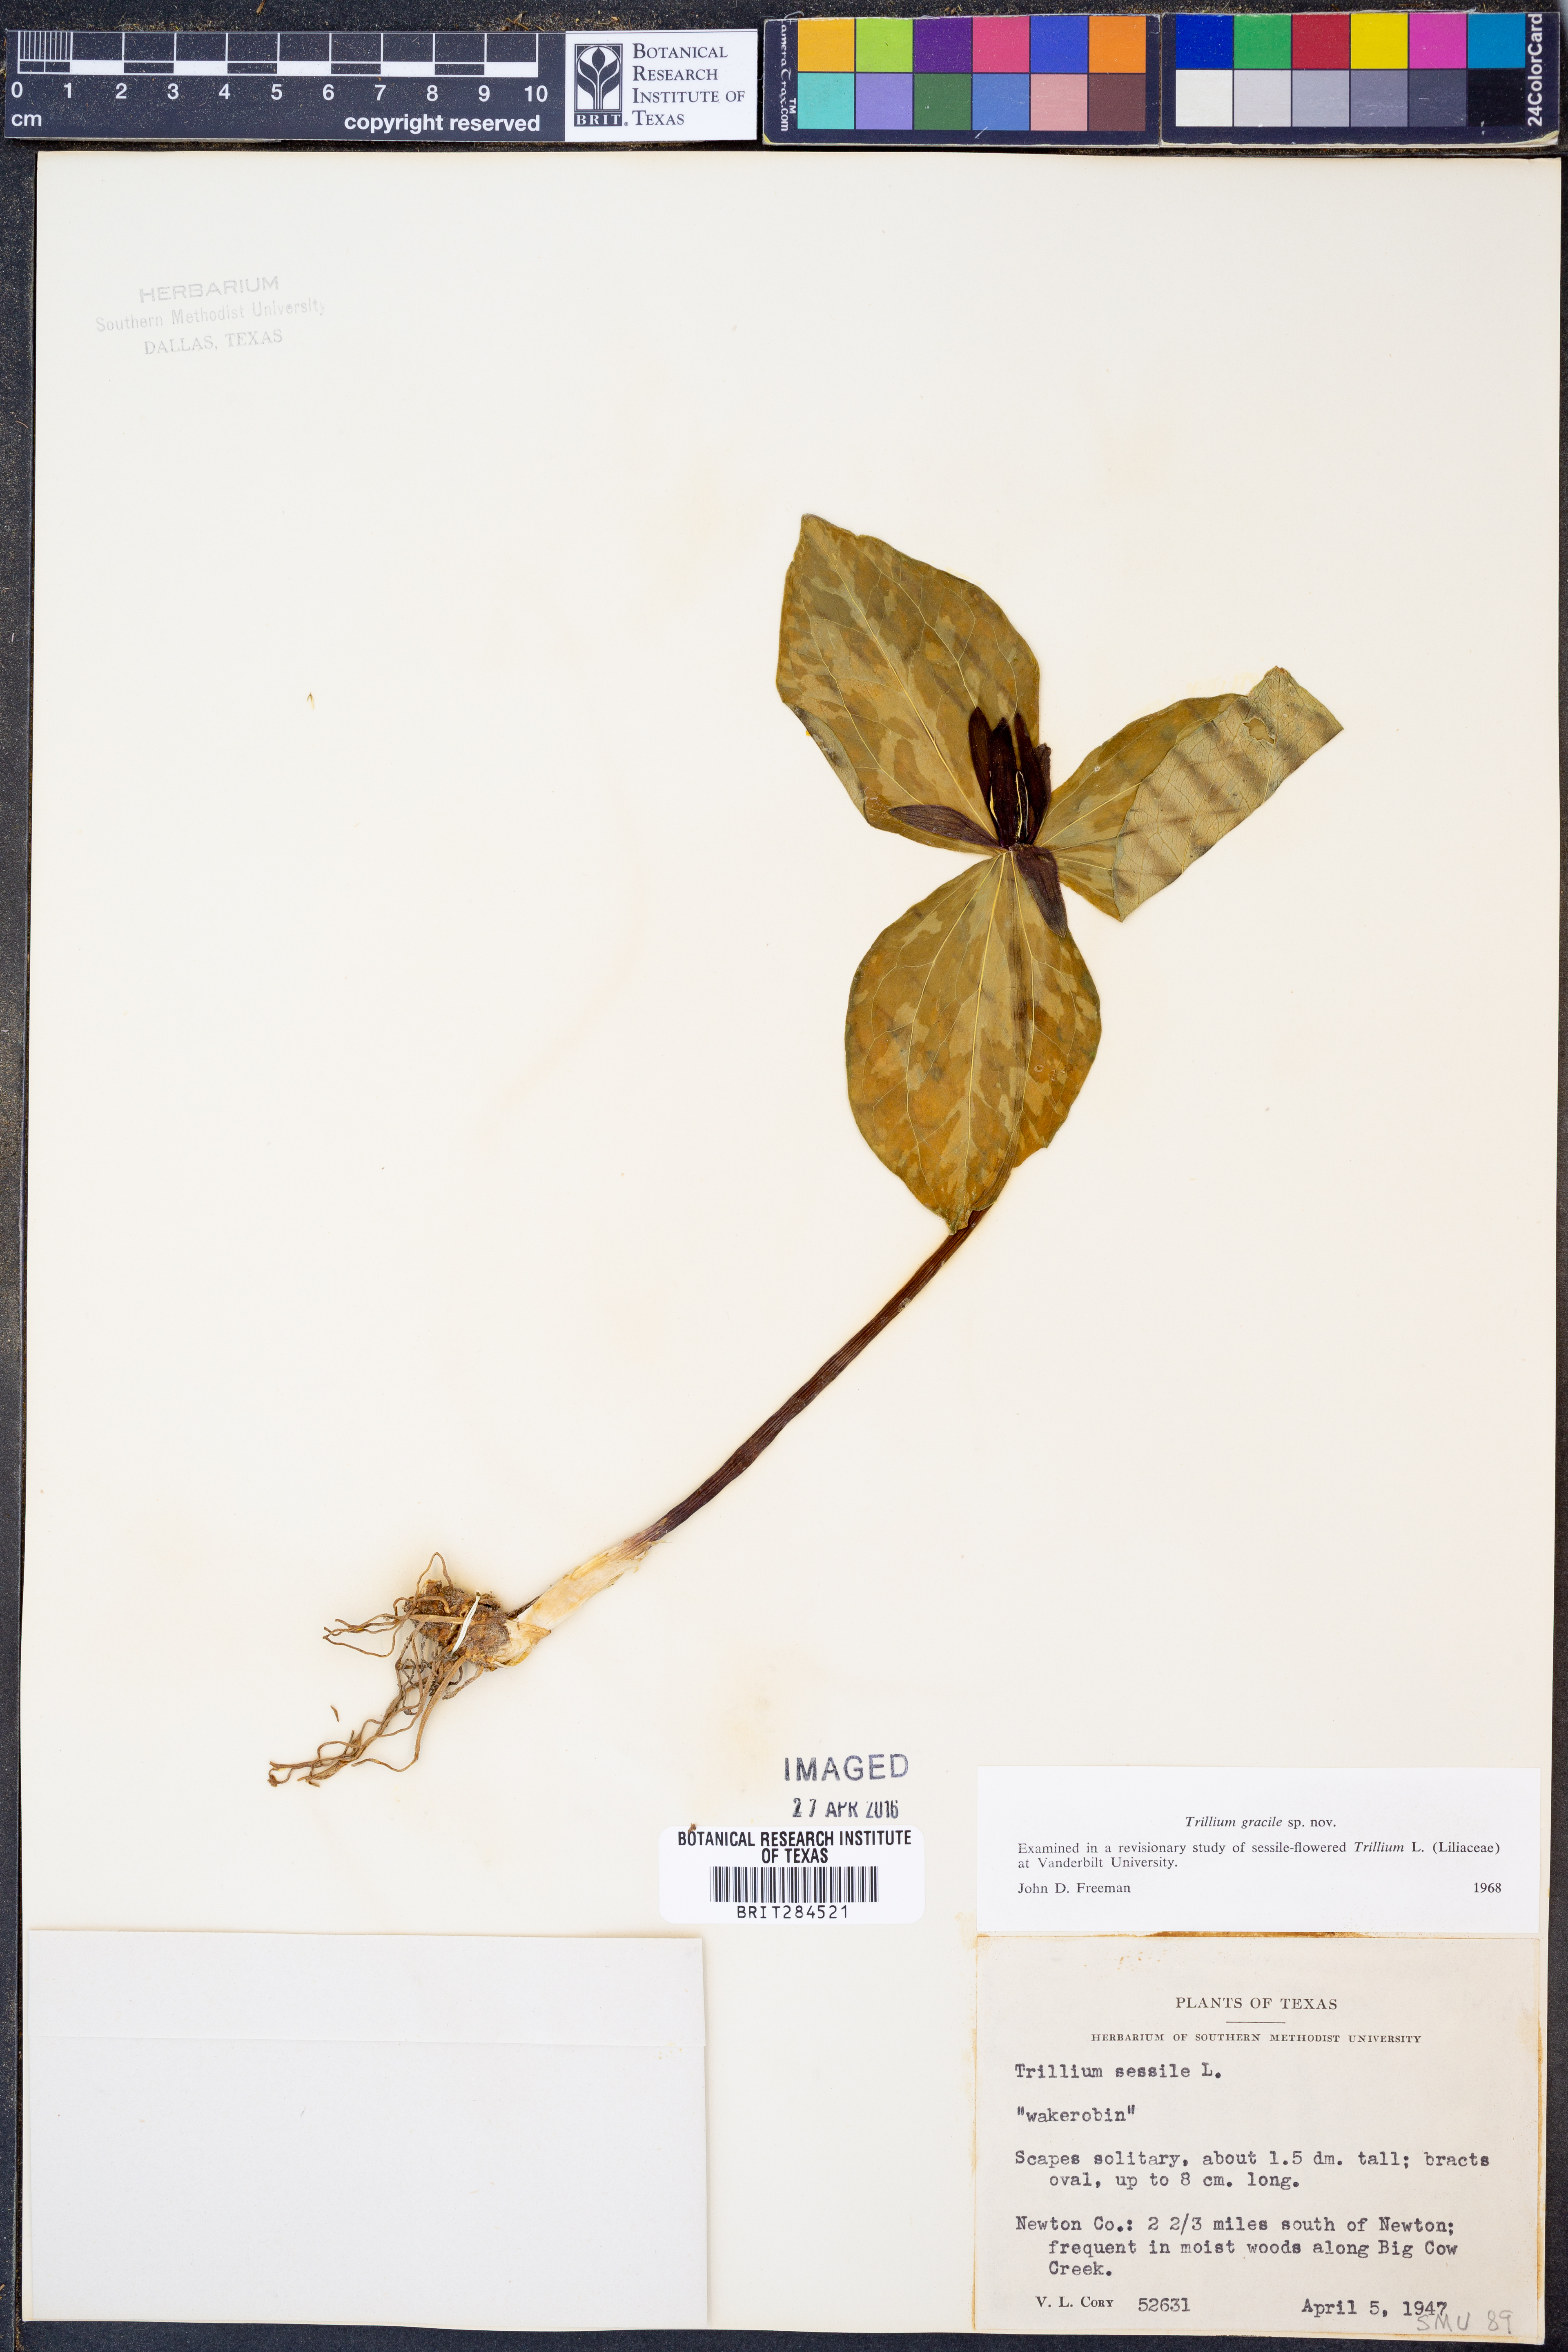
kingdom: Plantae
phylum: Tracheophyta
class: Liliopsida
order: Liliales
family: Melanthiaceae
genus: Trillium
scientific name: Trillium gracile
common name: Graceful trillium
